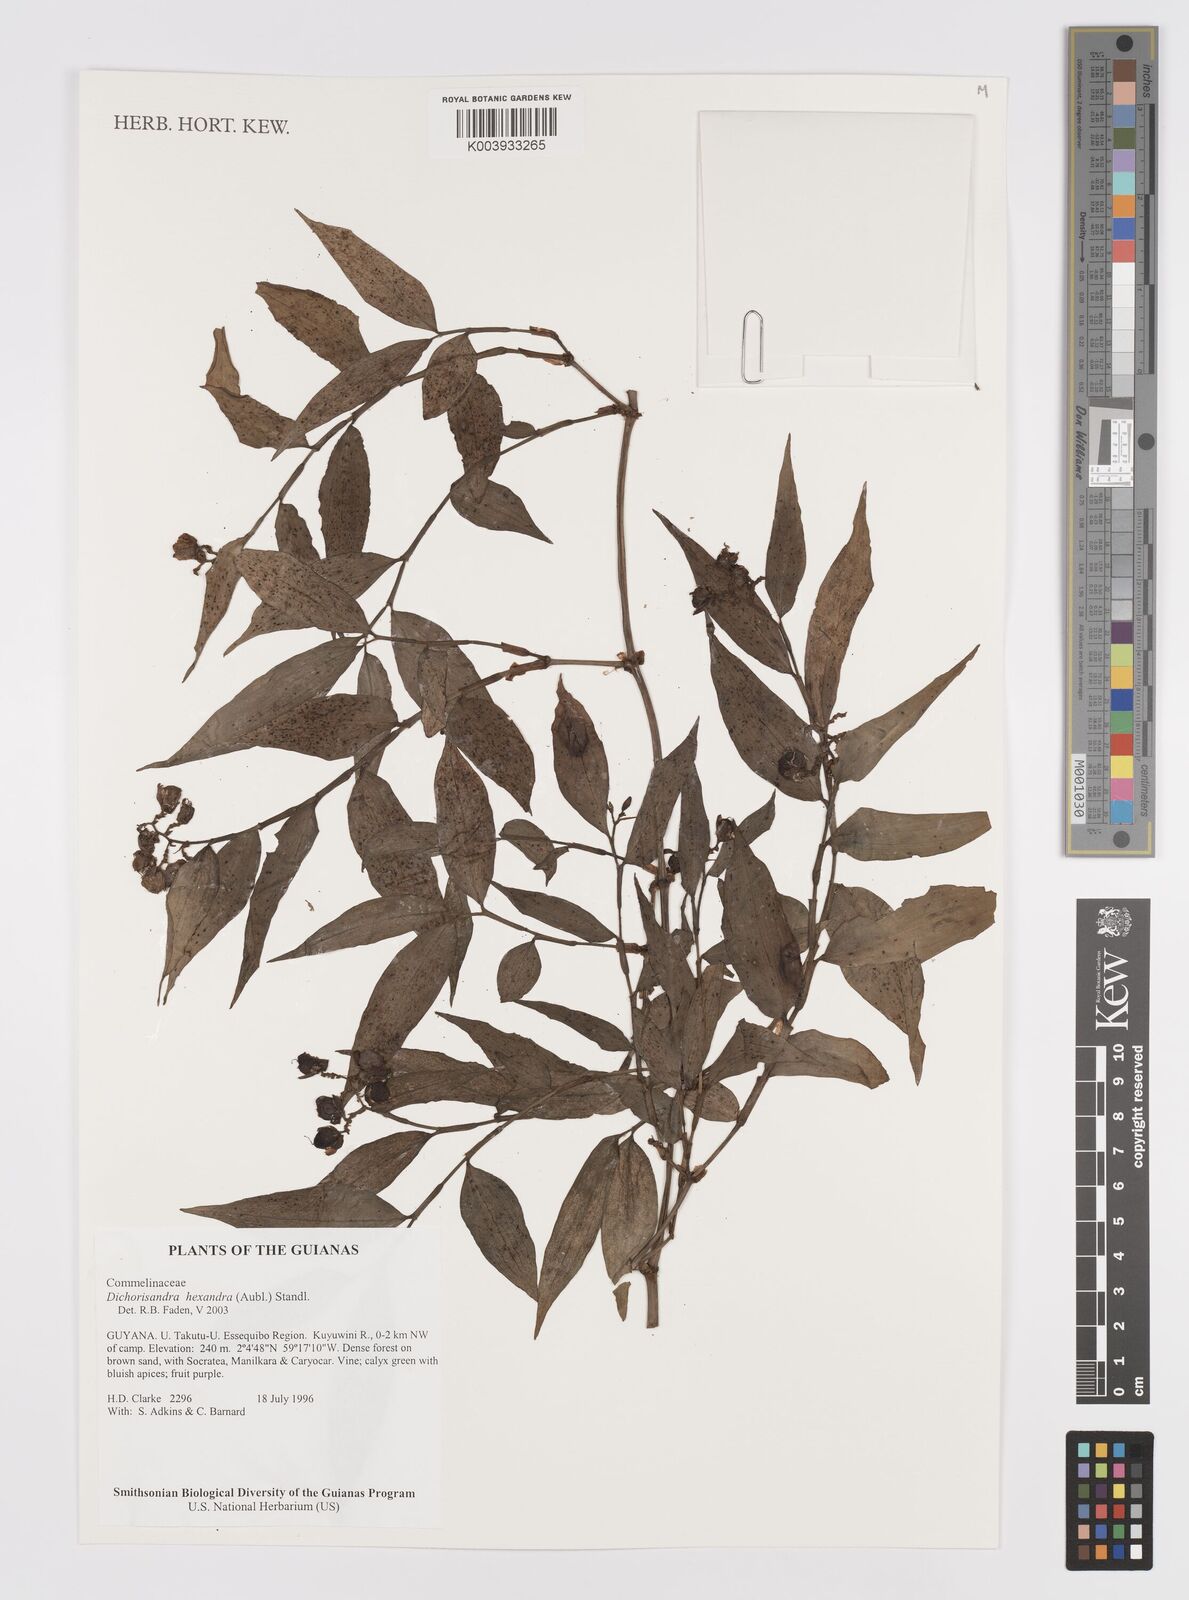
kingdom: Plantae
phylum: Tracheophyta
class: Liliopsida
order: Commelinales
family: Commelinaceae
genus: Dichorisandra
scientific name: Dichorisandra hexandra
